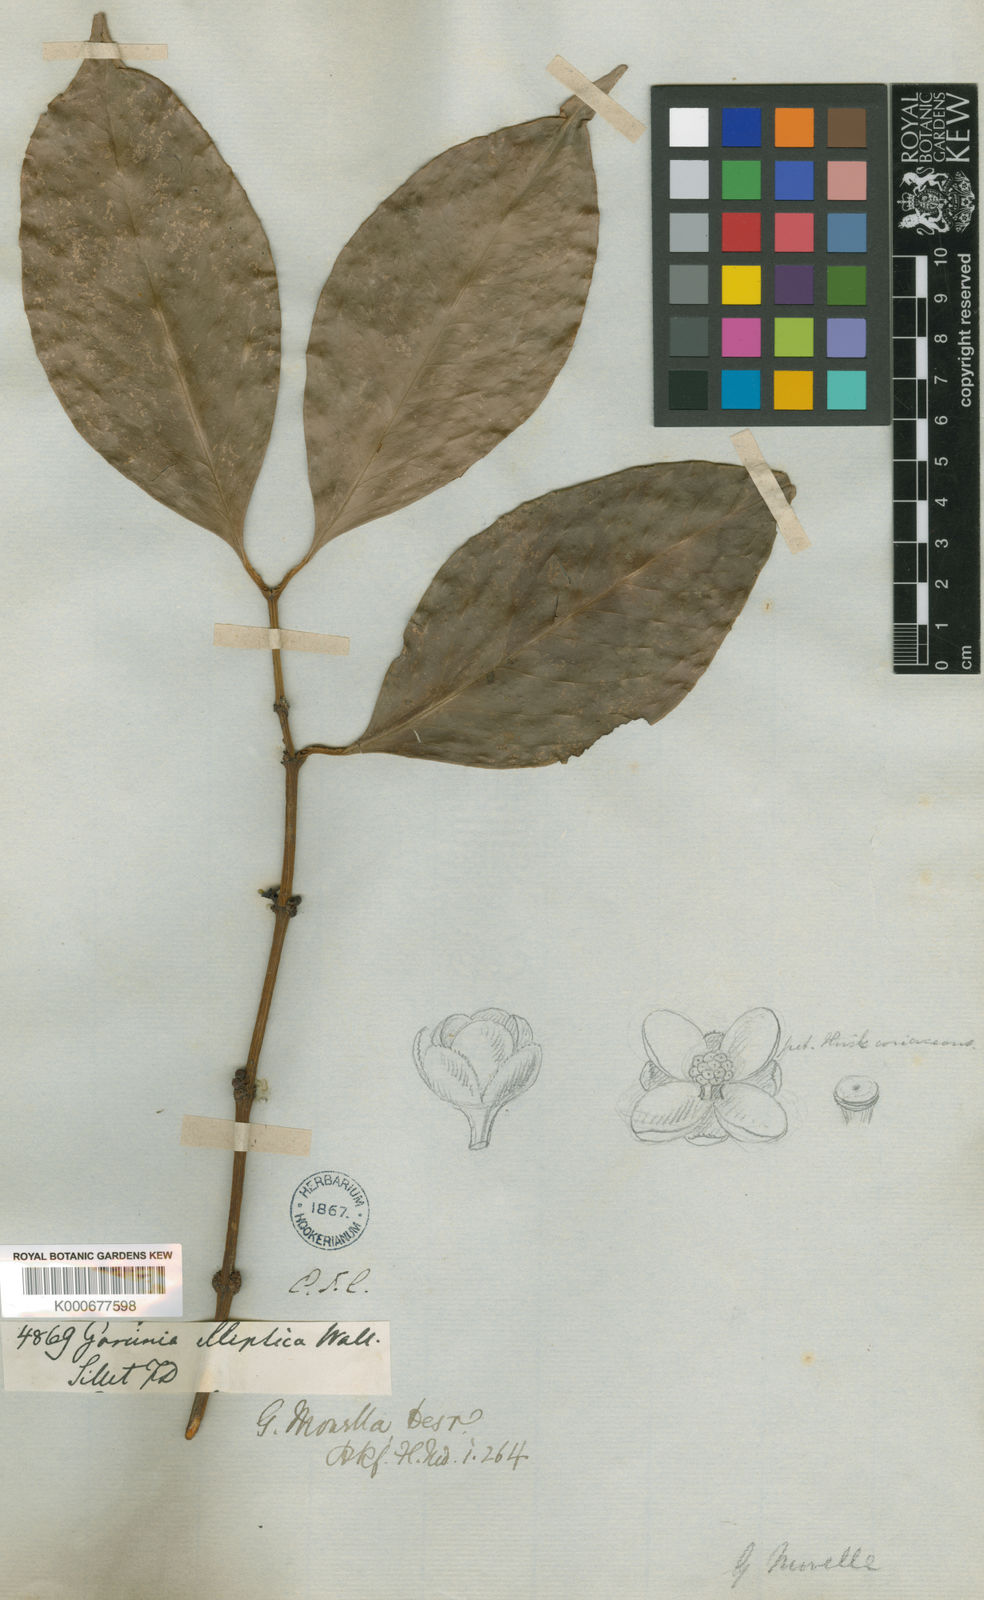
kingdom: Plantae
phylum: Tracheophyta
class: Magnoliopsida
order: Malpighiales
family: Clusiaceae
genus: Garcinia
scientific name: Garcinia
